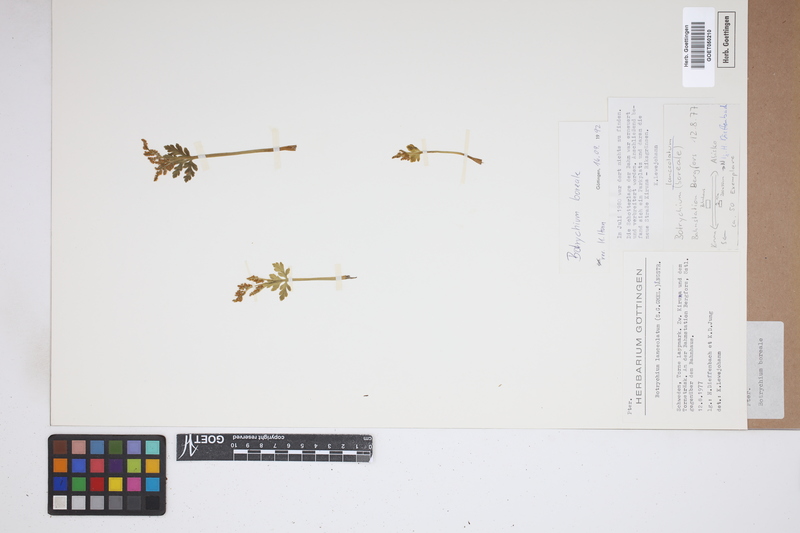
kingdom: Plantae
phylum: Tracheophyta
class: Polypodiopsida
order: Ophioglossales
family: Ophioglossaceae
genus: Botrychium
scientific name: Botrychium boreale
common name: Boreal moonwort
